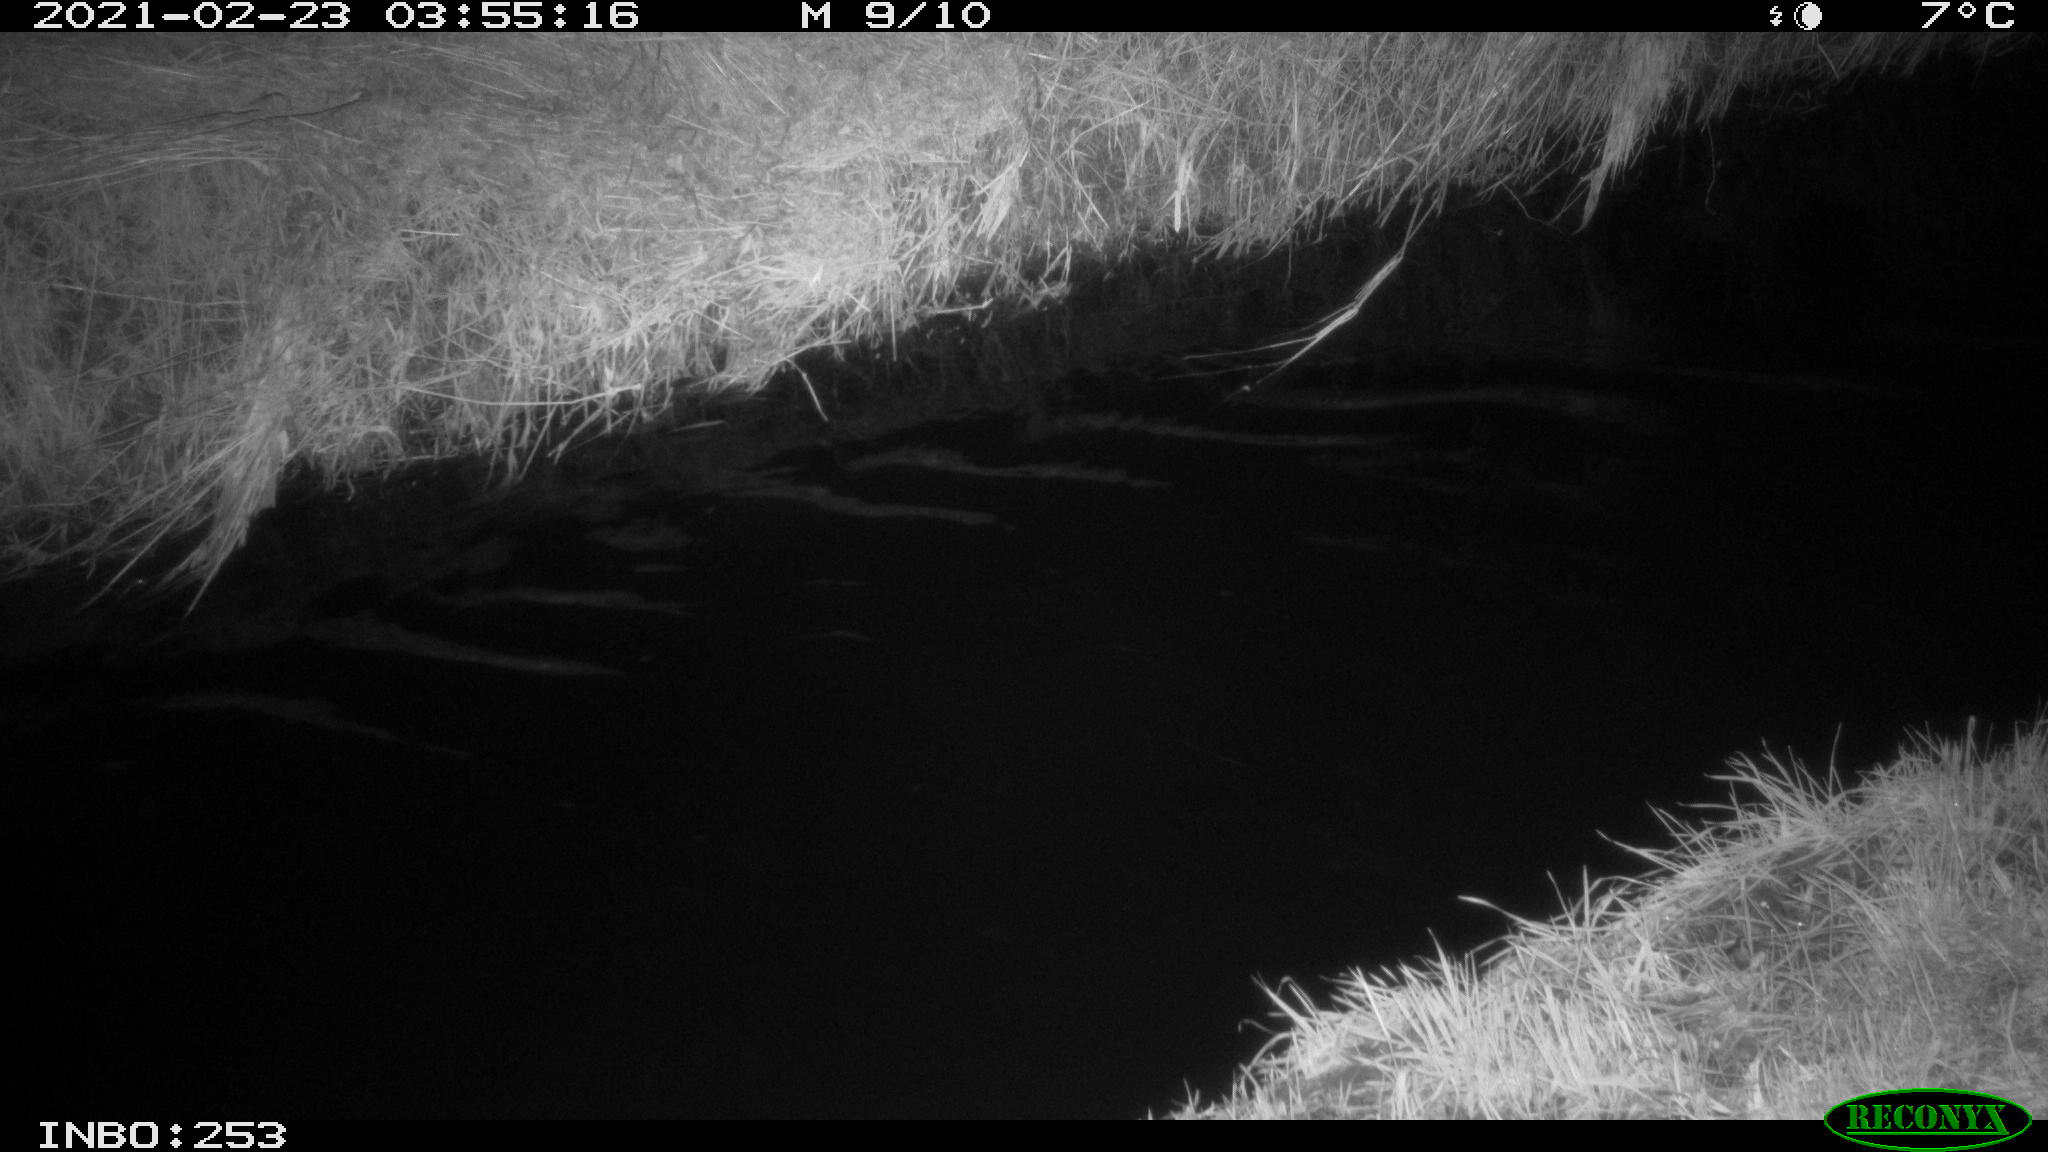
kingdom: Animalia
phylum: Chordata
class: Aves
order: Anseriformes
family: Anatidae
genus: Anas
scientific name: Anas platyrhynchos
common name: Mallard
